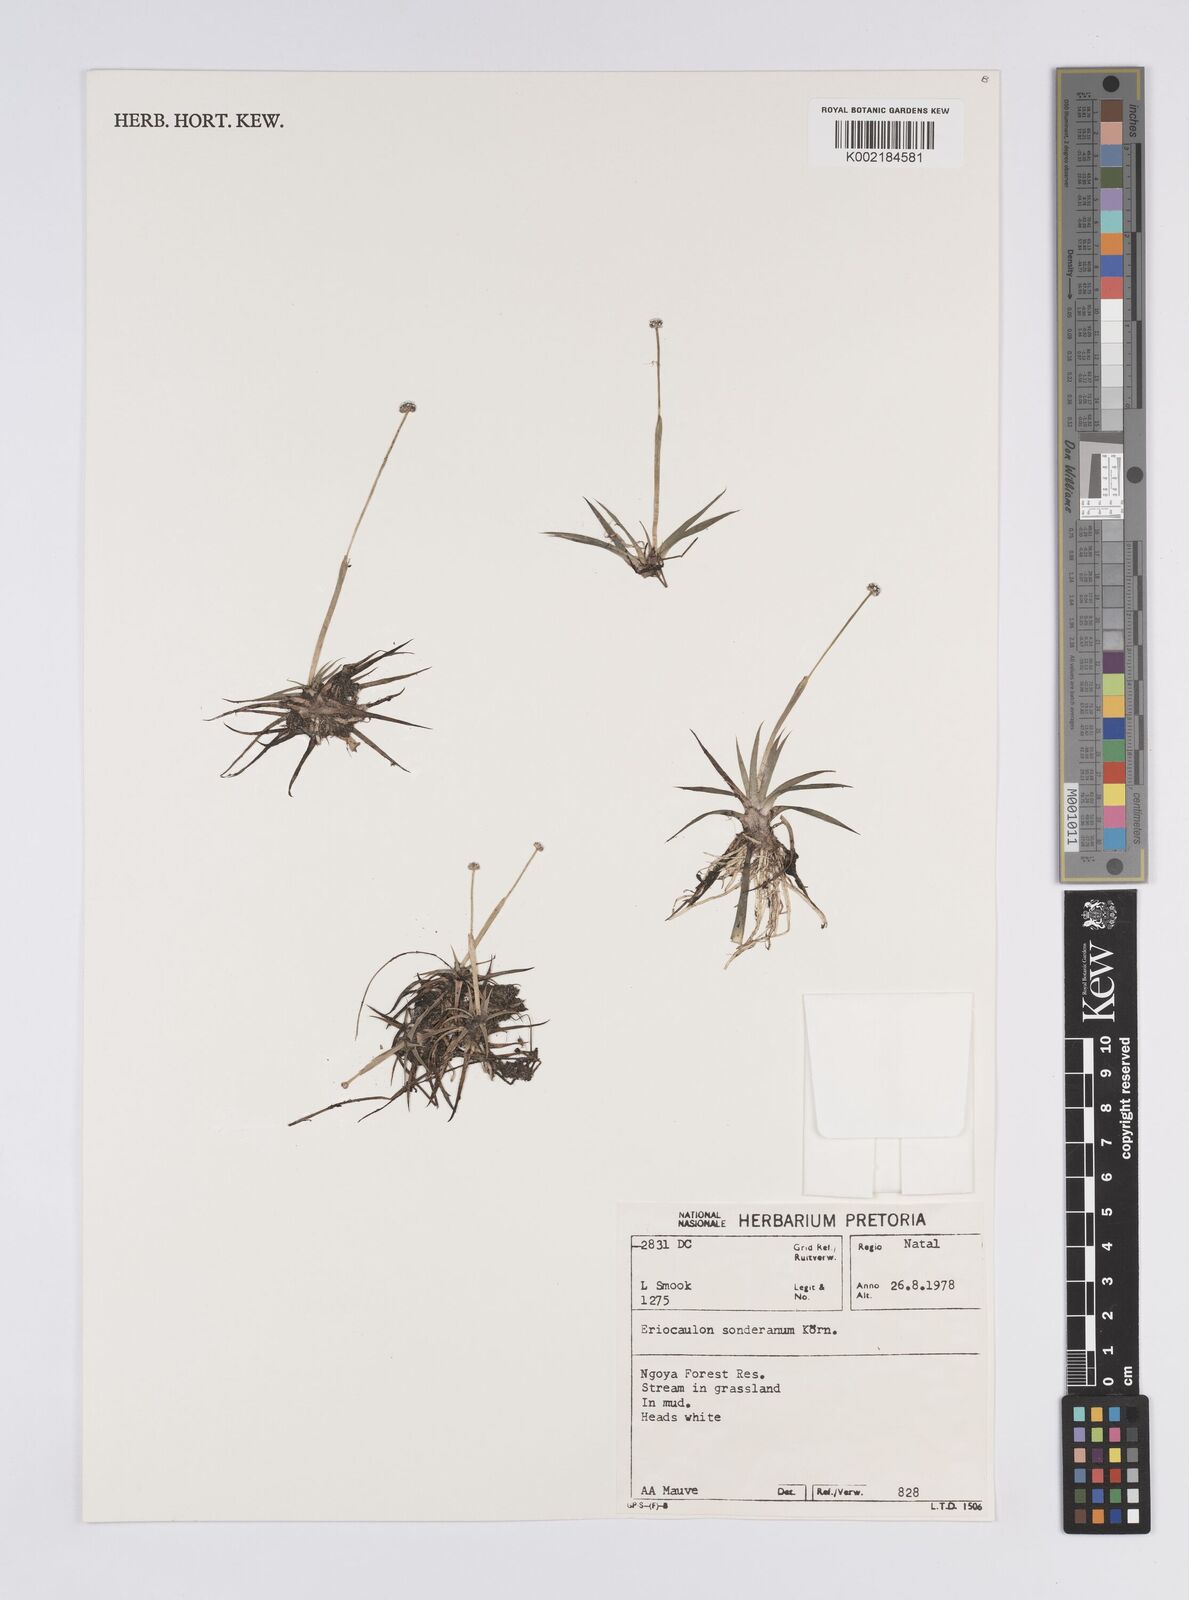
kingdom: Plantae
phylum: Tracheophyta
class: Liliopsida
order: Poales
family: Eriocaulaceae
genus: Eriocaulon
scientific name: Eriocaulon sonderianum
